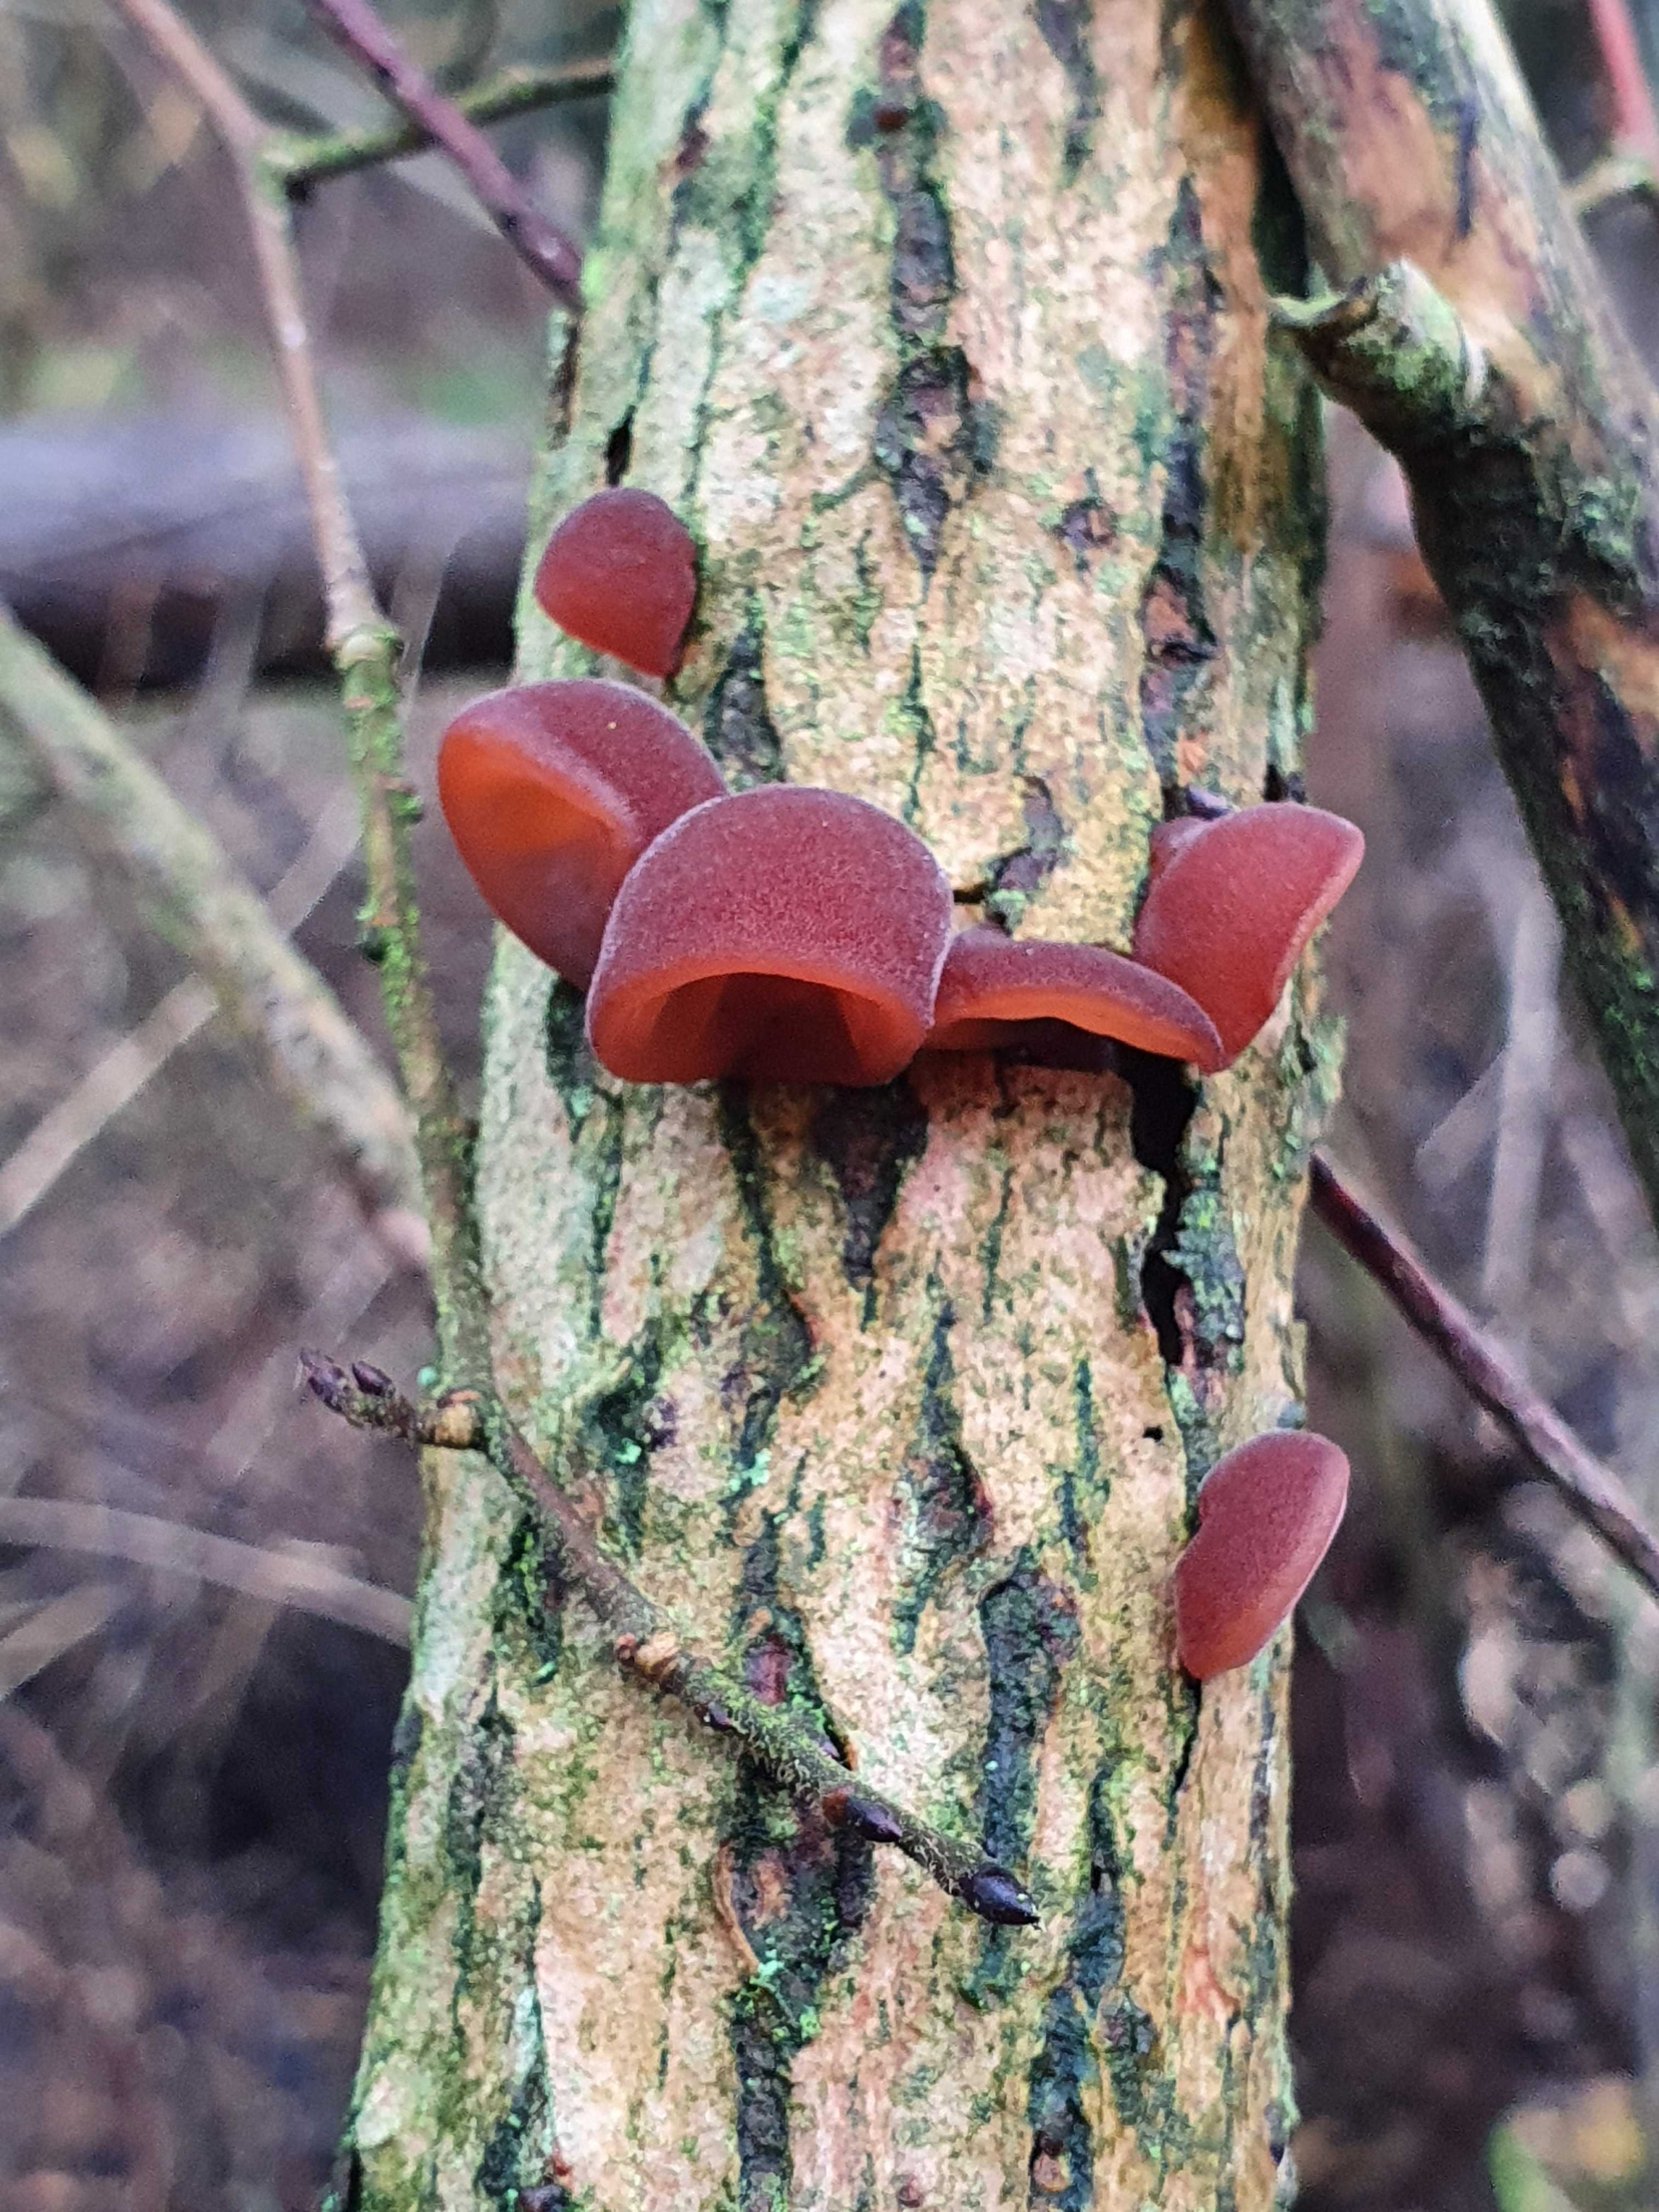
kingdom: Fungi
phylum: Basidiomycota
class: Agaricomycetes
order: Auriculariales
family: Auriculariaceae
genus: Auricularia
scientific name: Auricularia auricula-judae
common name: almindelig judasøre
